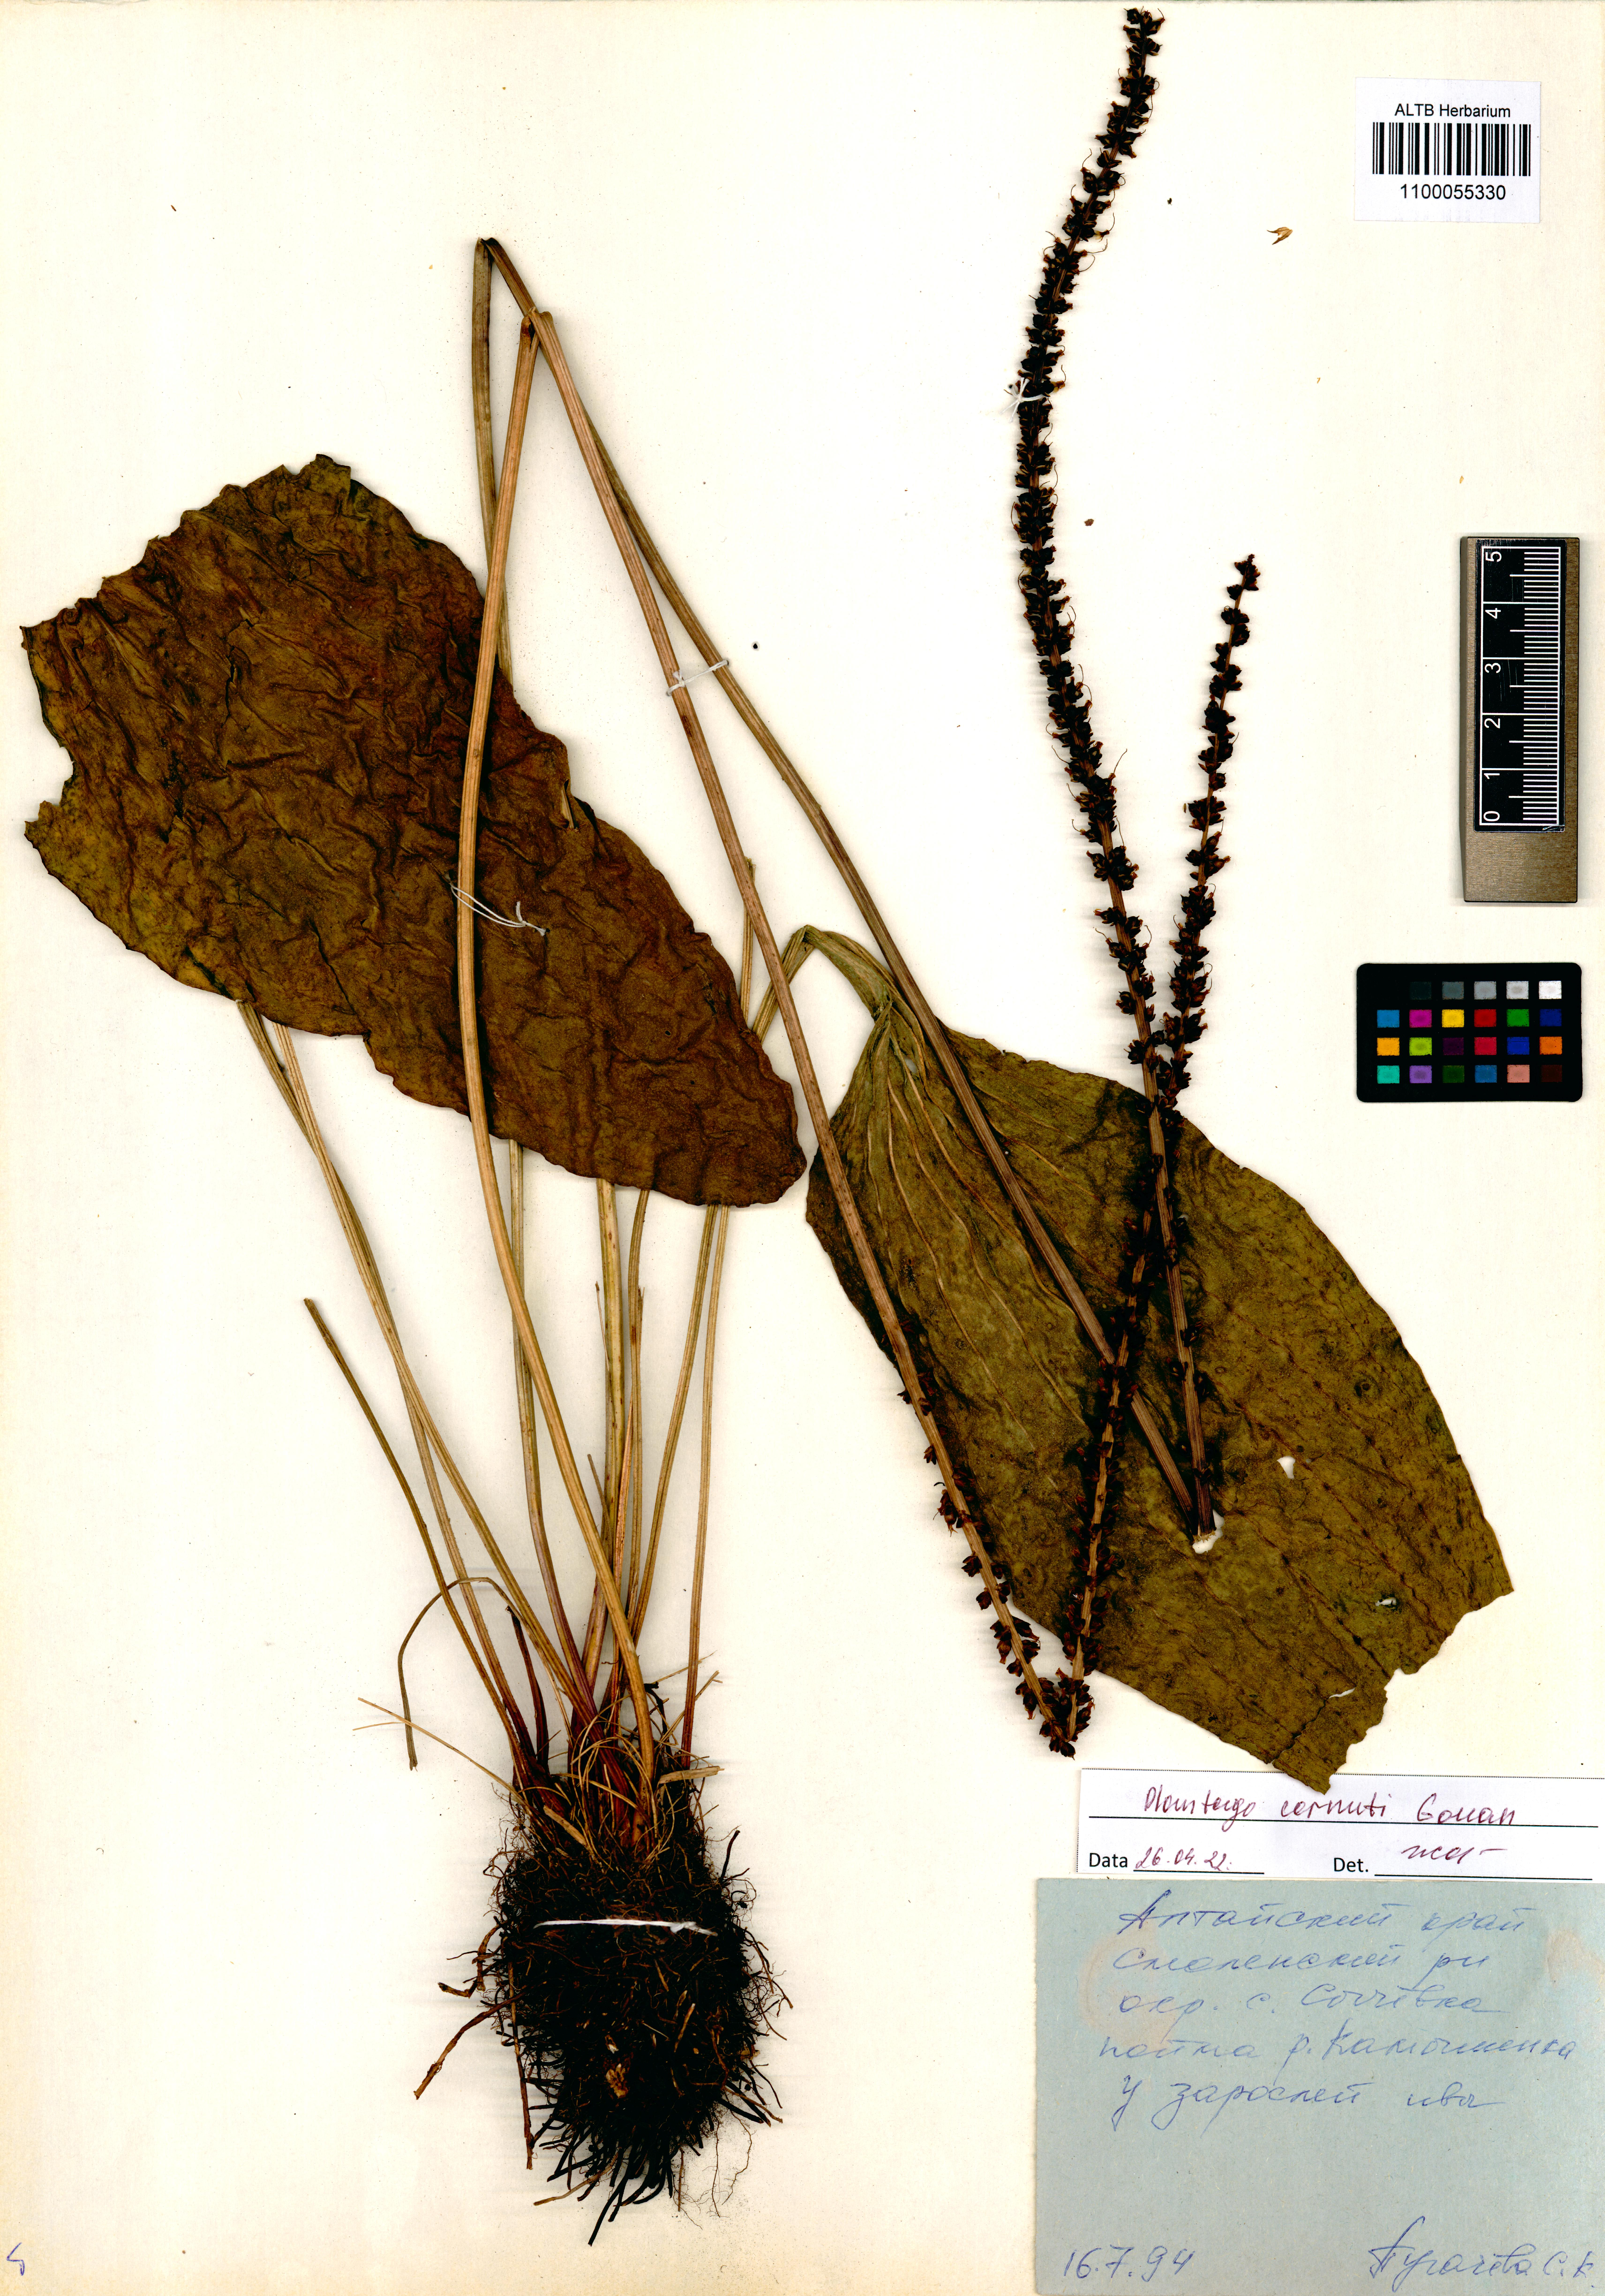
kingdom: Plantae
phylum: Tracheophyta
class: Magnoliopsida
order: Lamiales
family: Plantaginaceae
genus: Plantago
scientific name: Plantago cornuti
